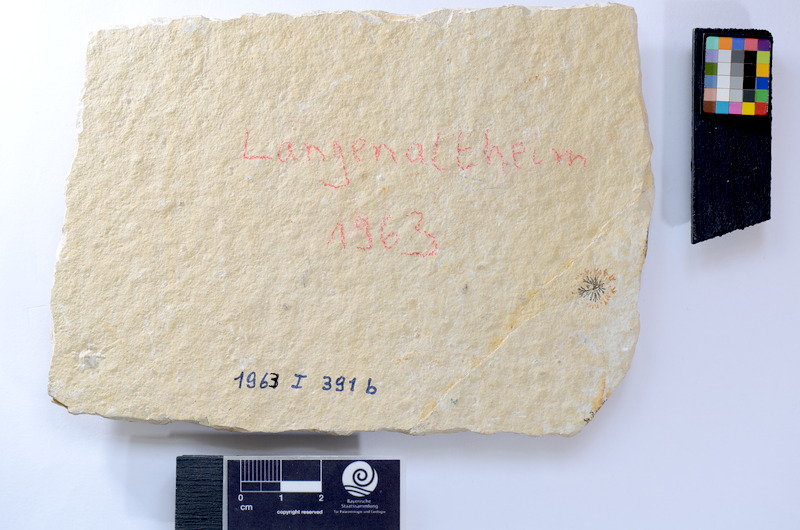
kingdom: Animalia
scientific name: Animalia
